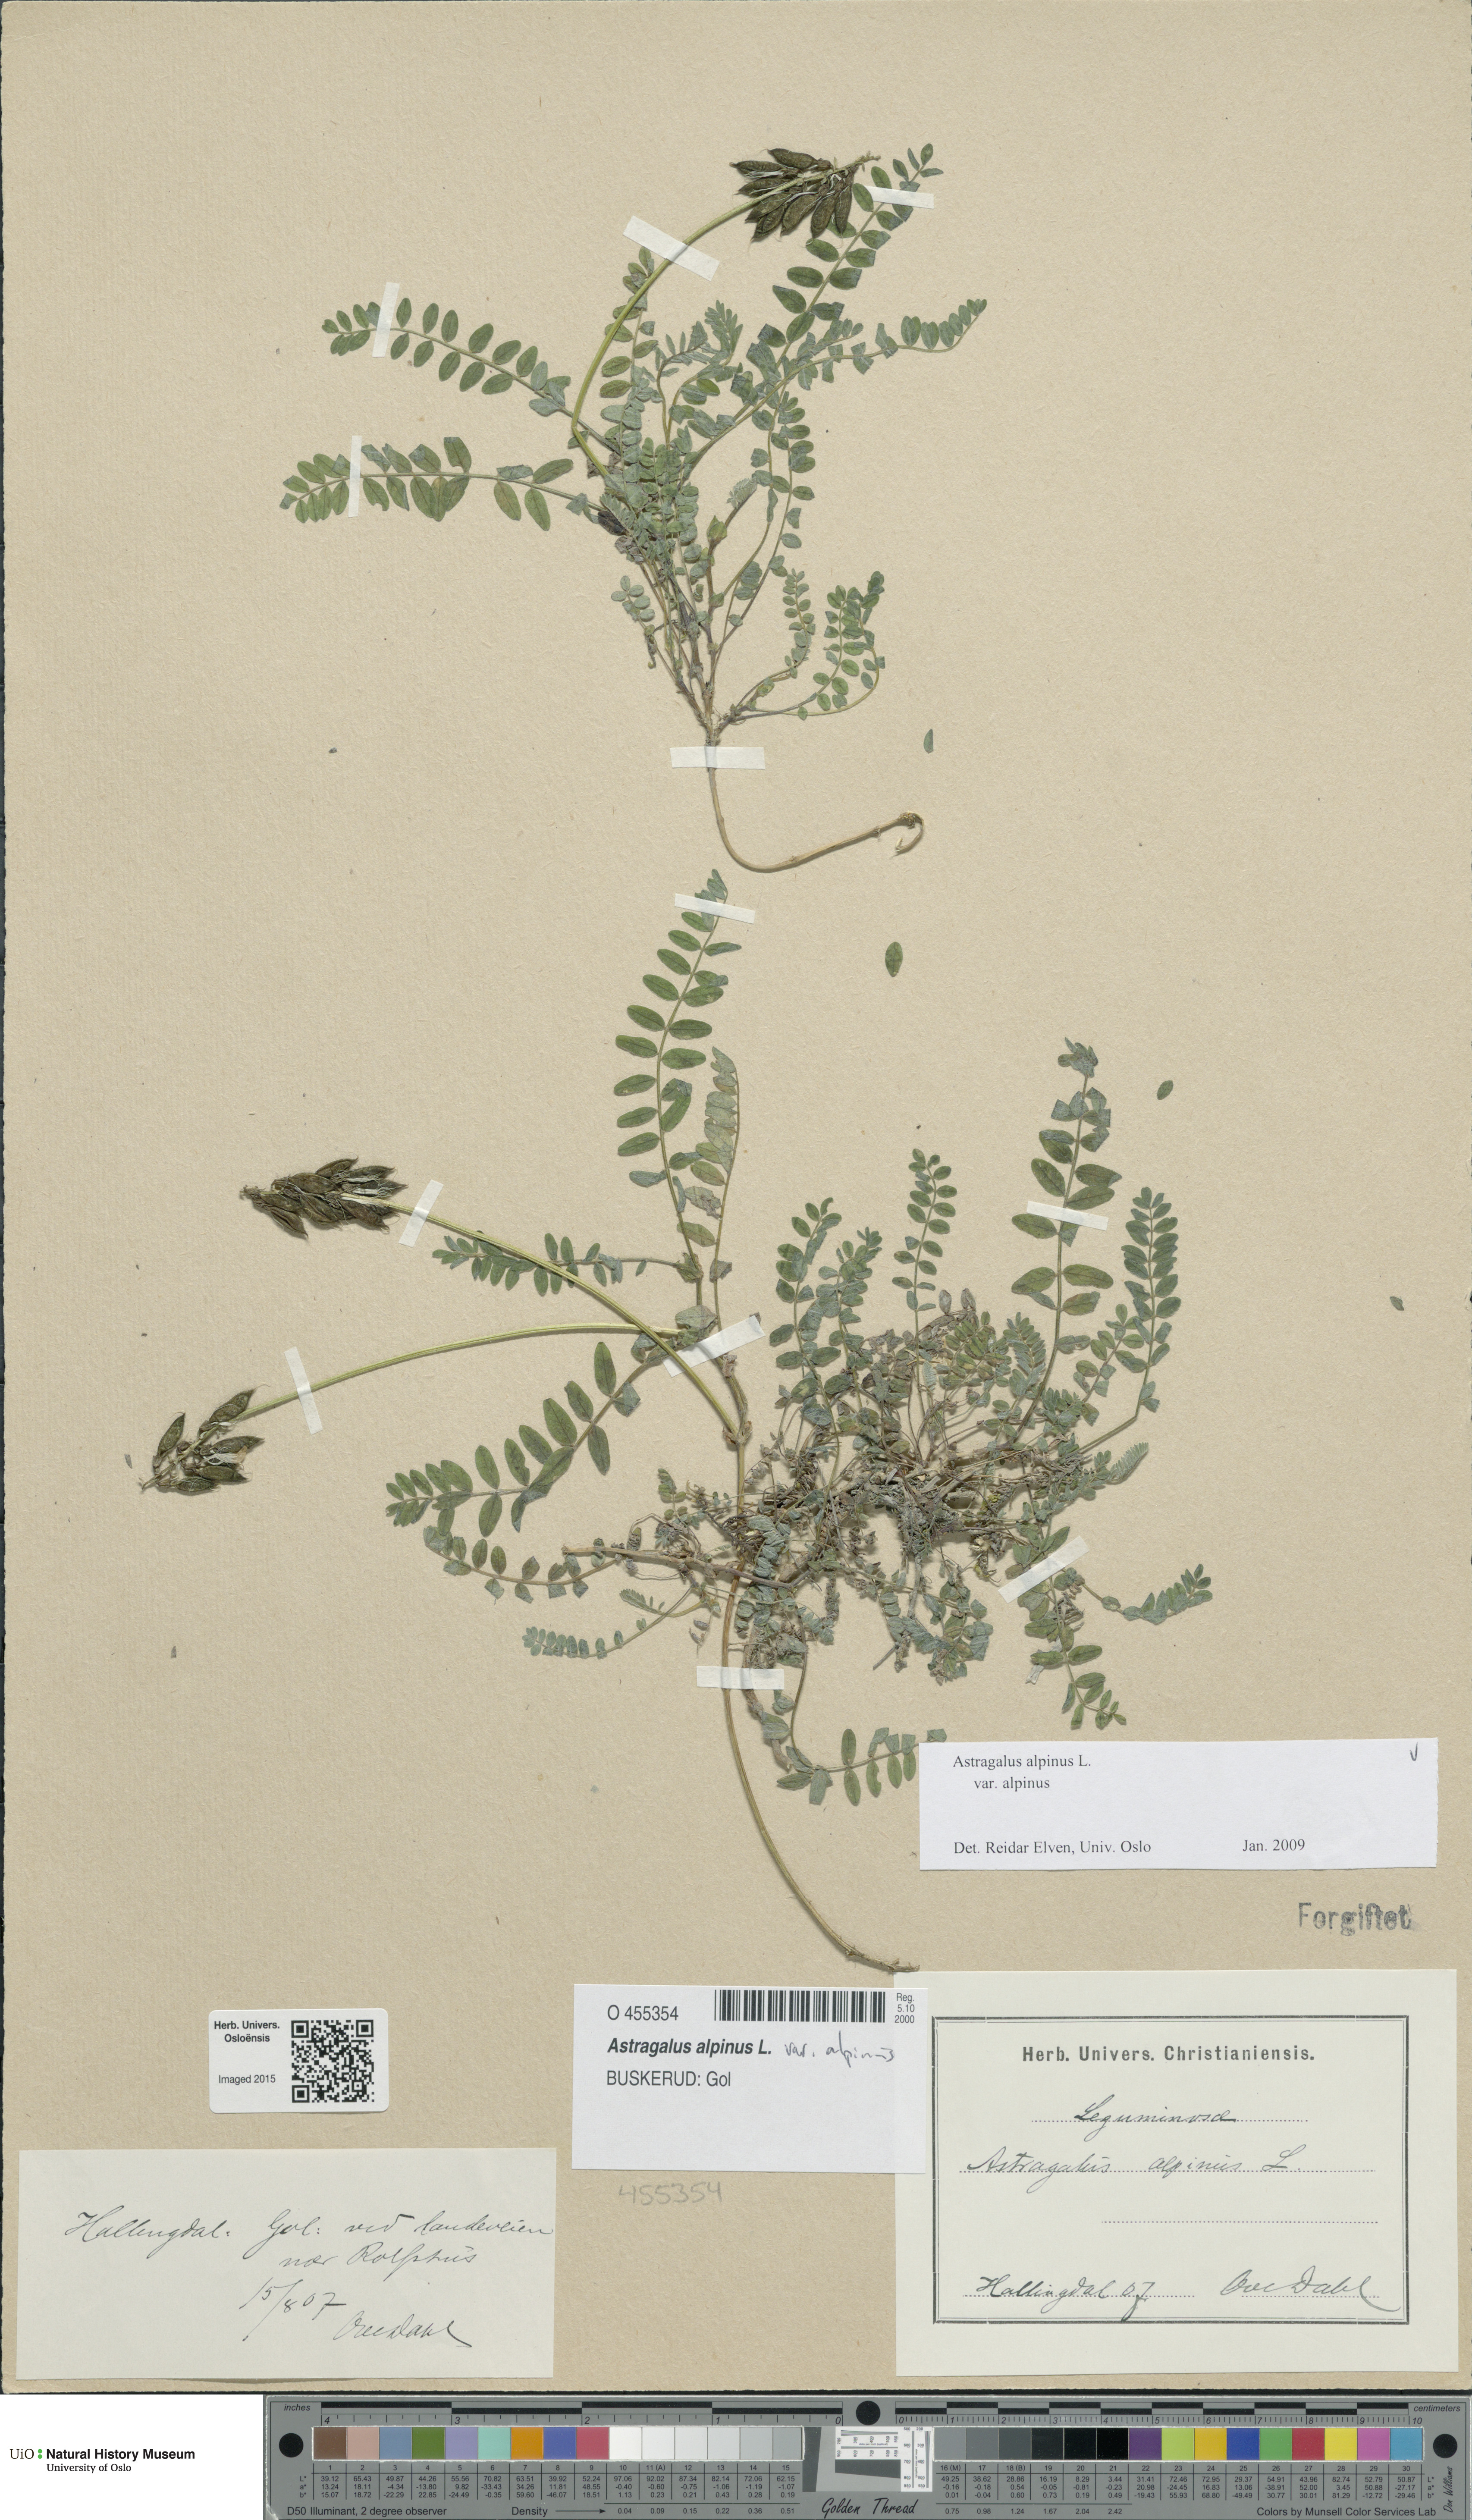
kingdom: Plantae
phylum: Tracheophyta
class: Magnoliopsida
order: Fabales
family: Fabaceae
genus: Astragalus
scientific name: Astragalus alpinus
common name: Alpine milk-vetch
